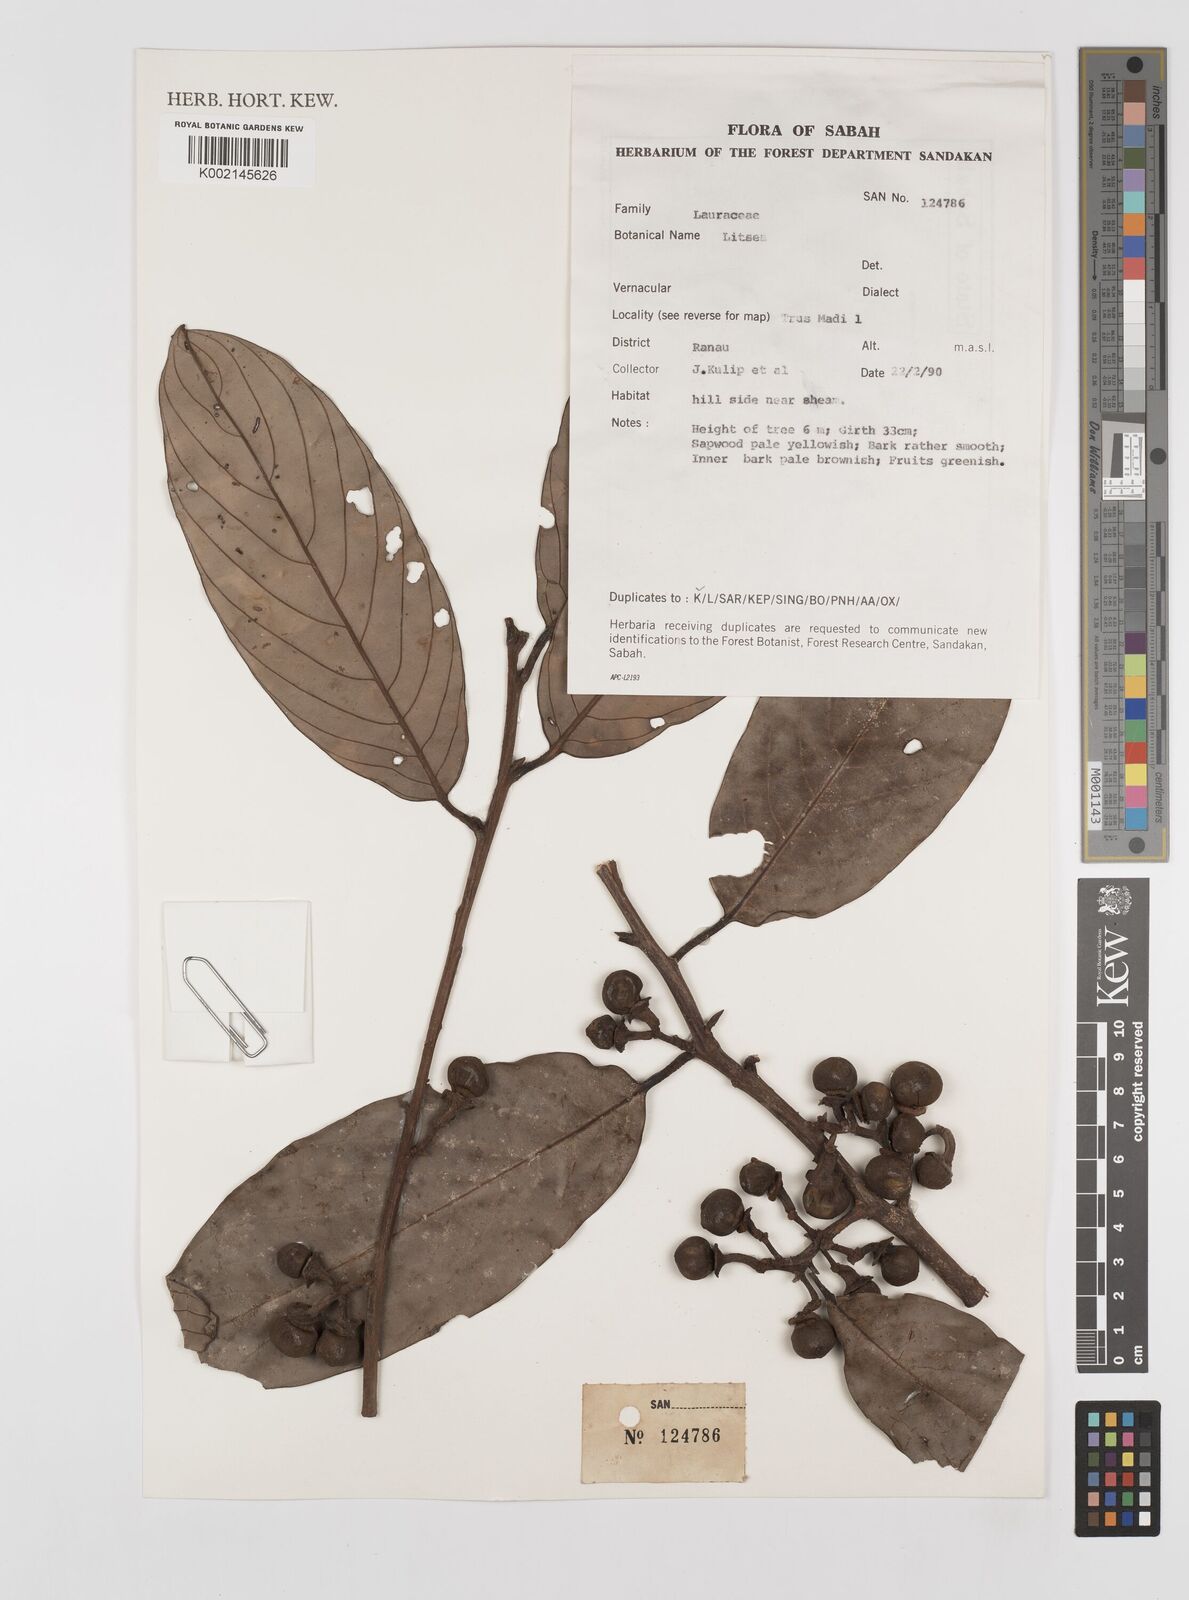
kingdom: Plantae
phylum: Tracheophyta
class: Magnoliopsida
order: Laurales
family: Lauraceae
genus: Litsea
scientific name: Litsea
